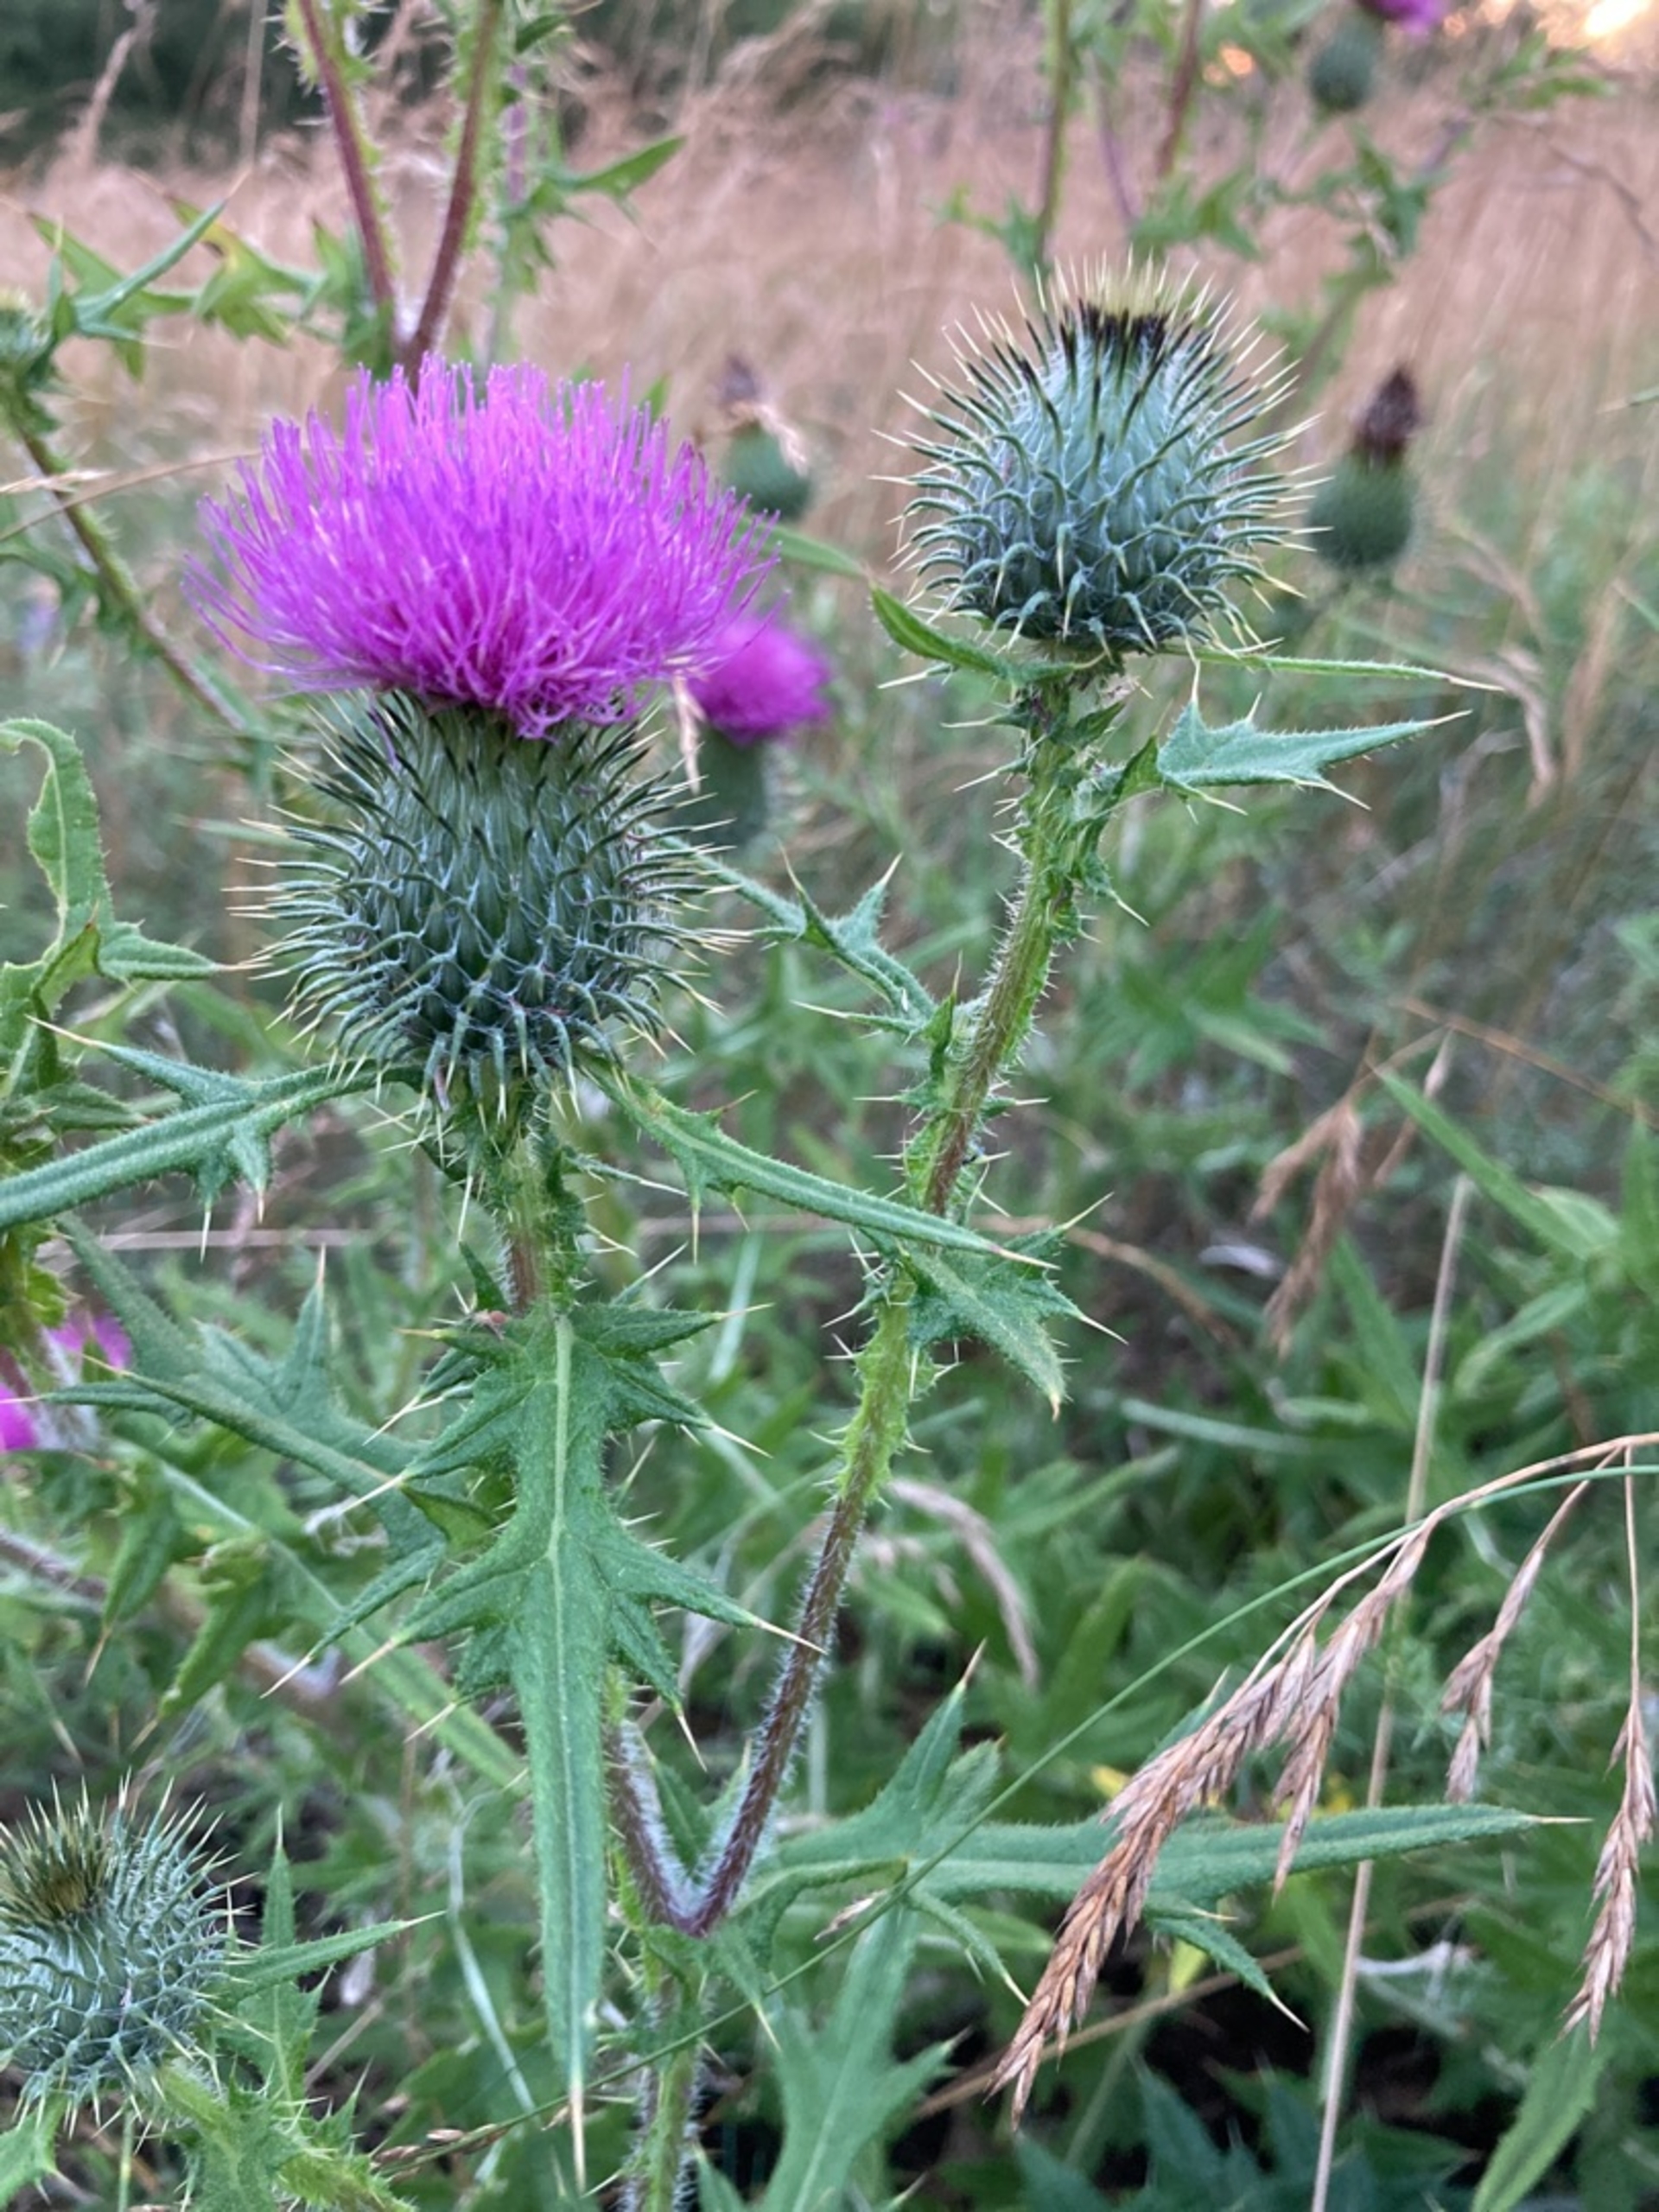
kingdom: Plantae
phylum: Tracheophyta
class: Magnoliopsida
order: Asterales
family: Asteraceae
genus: Cirsium
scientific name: Cirsium vulgare
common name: Horse-tidsel
